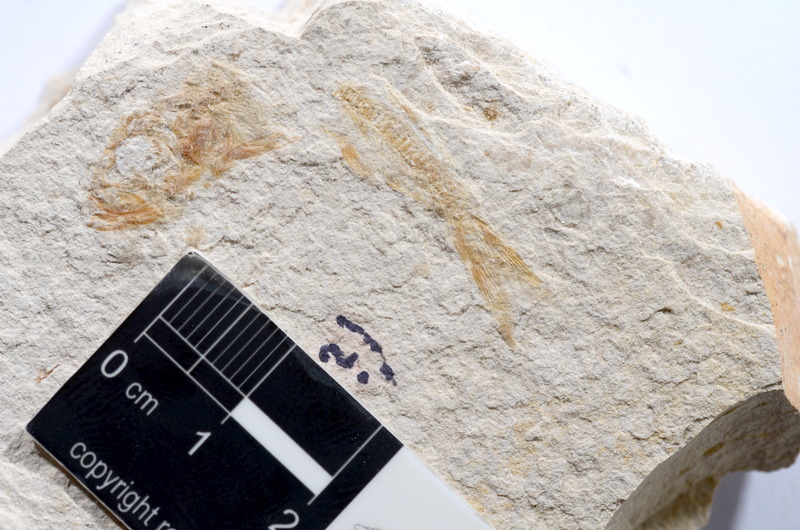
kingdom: Animalia
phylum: Chordata
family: Ascalaboidae
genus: Tharsis
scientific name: Tharsis dubius
